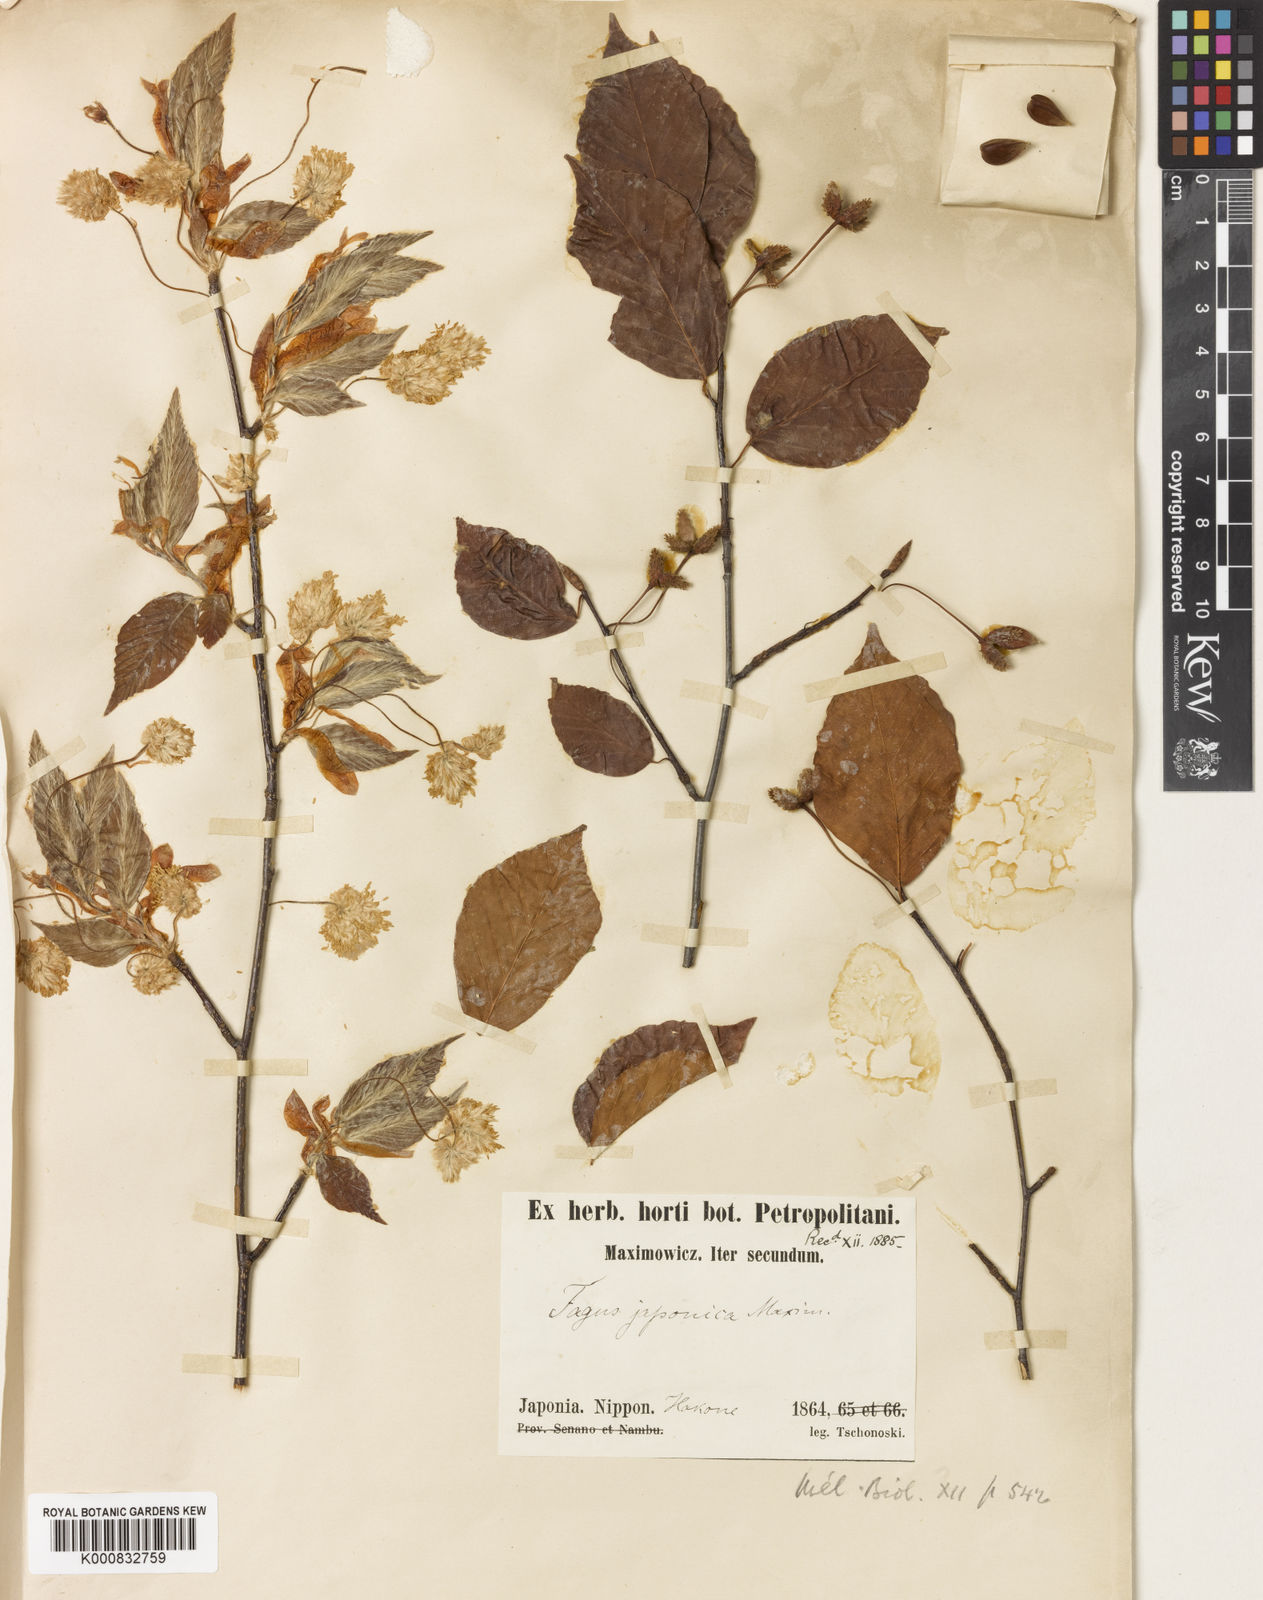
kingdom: Plantae
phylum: Tracheophyta
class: Magnoliopsida
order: Fagales
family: Fagaceae
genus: Fagus
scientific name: Fagus japonica
